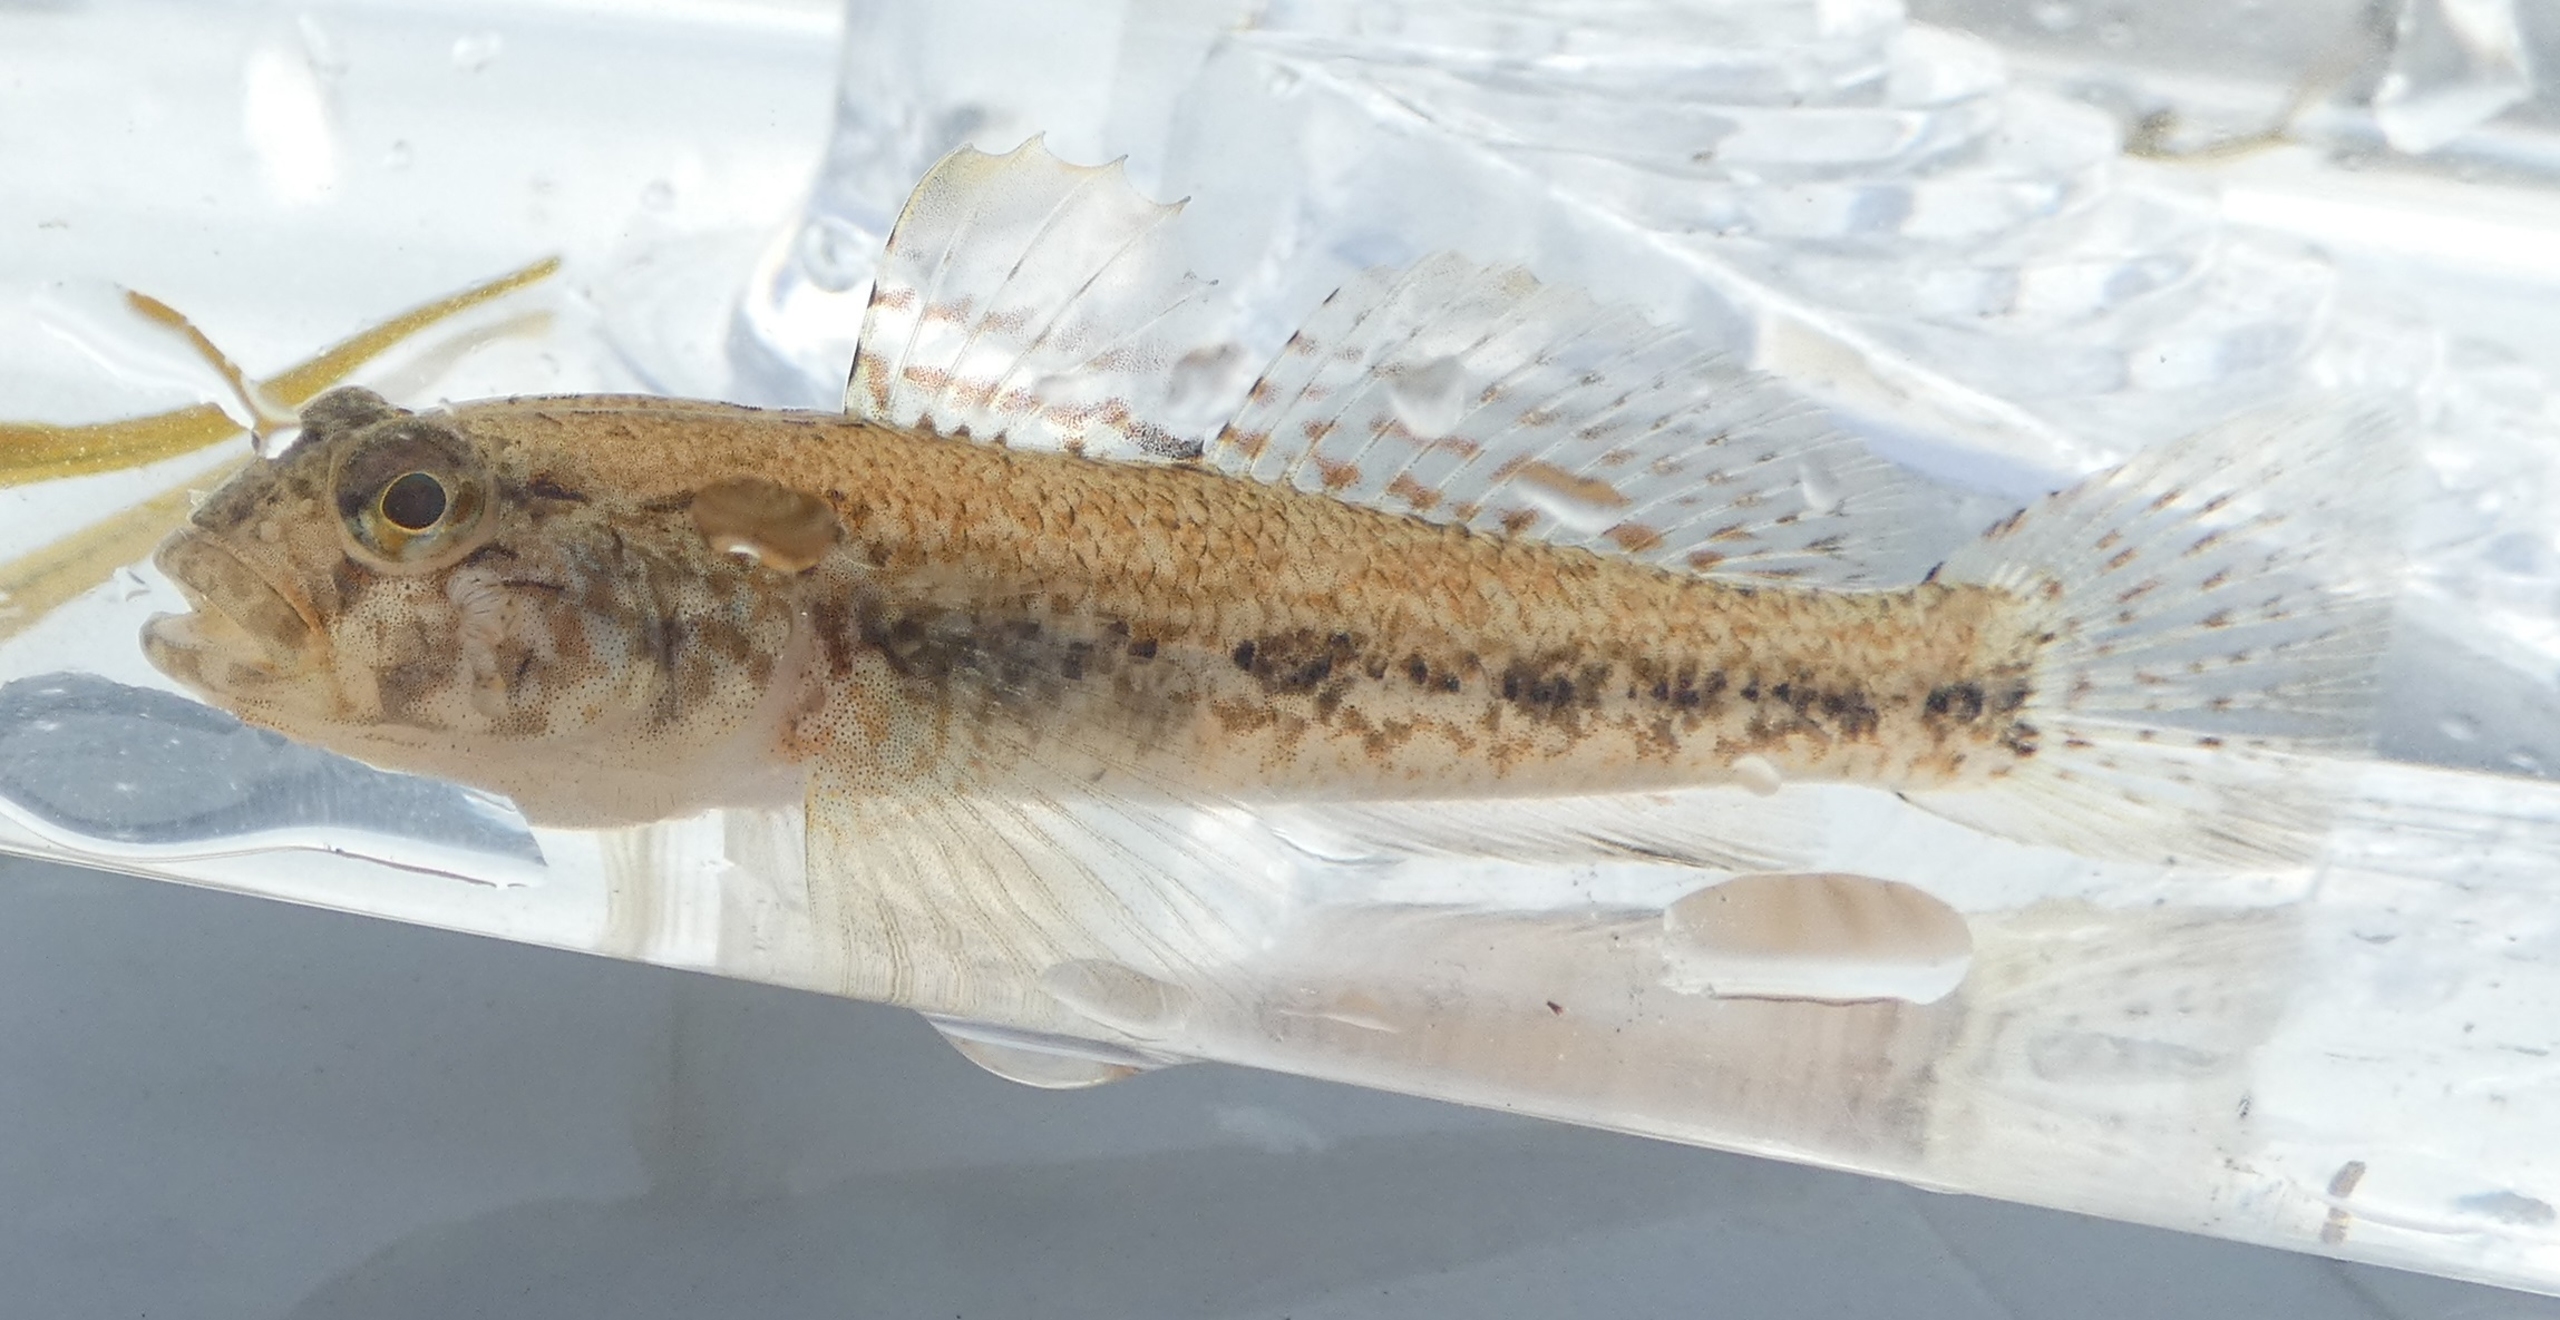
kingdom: Animalia
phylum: Chordata
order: Perciformes
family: Gobiidae
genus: Gobius
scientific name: Gobius niger
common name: Sortkutling
